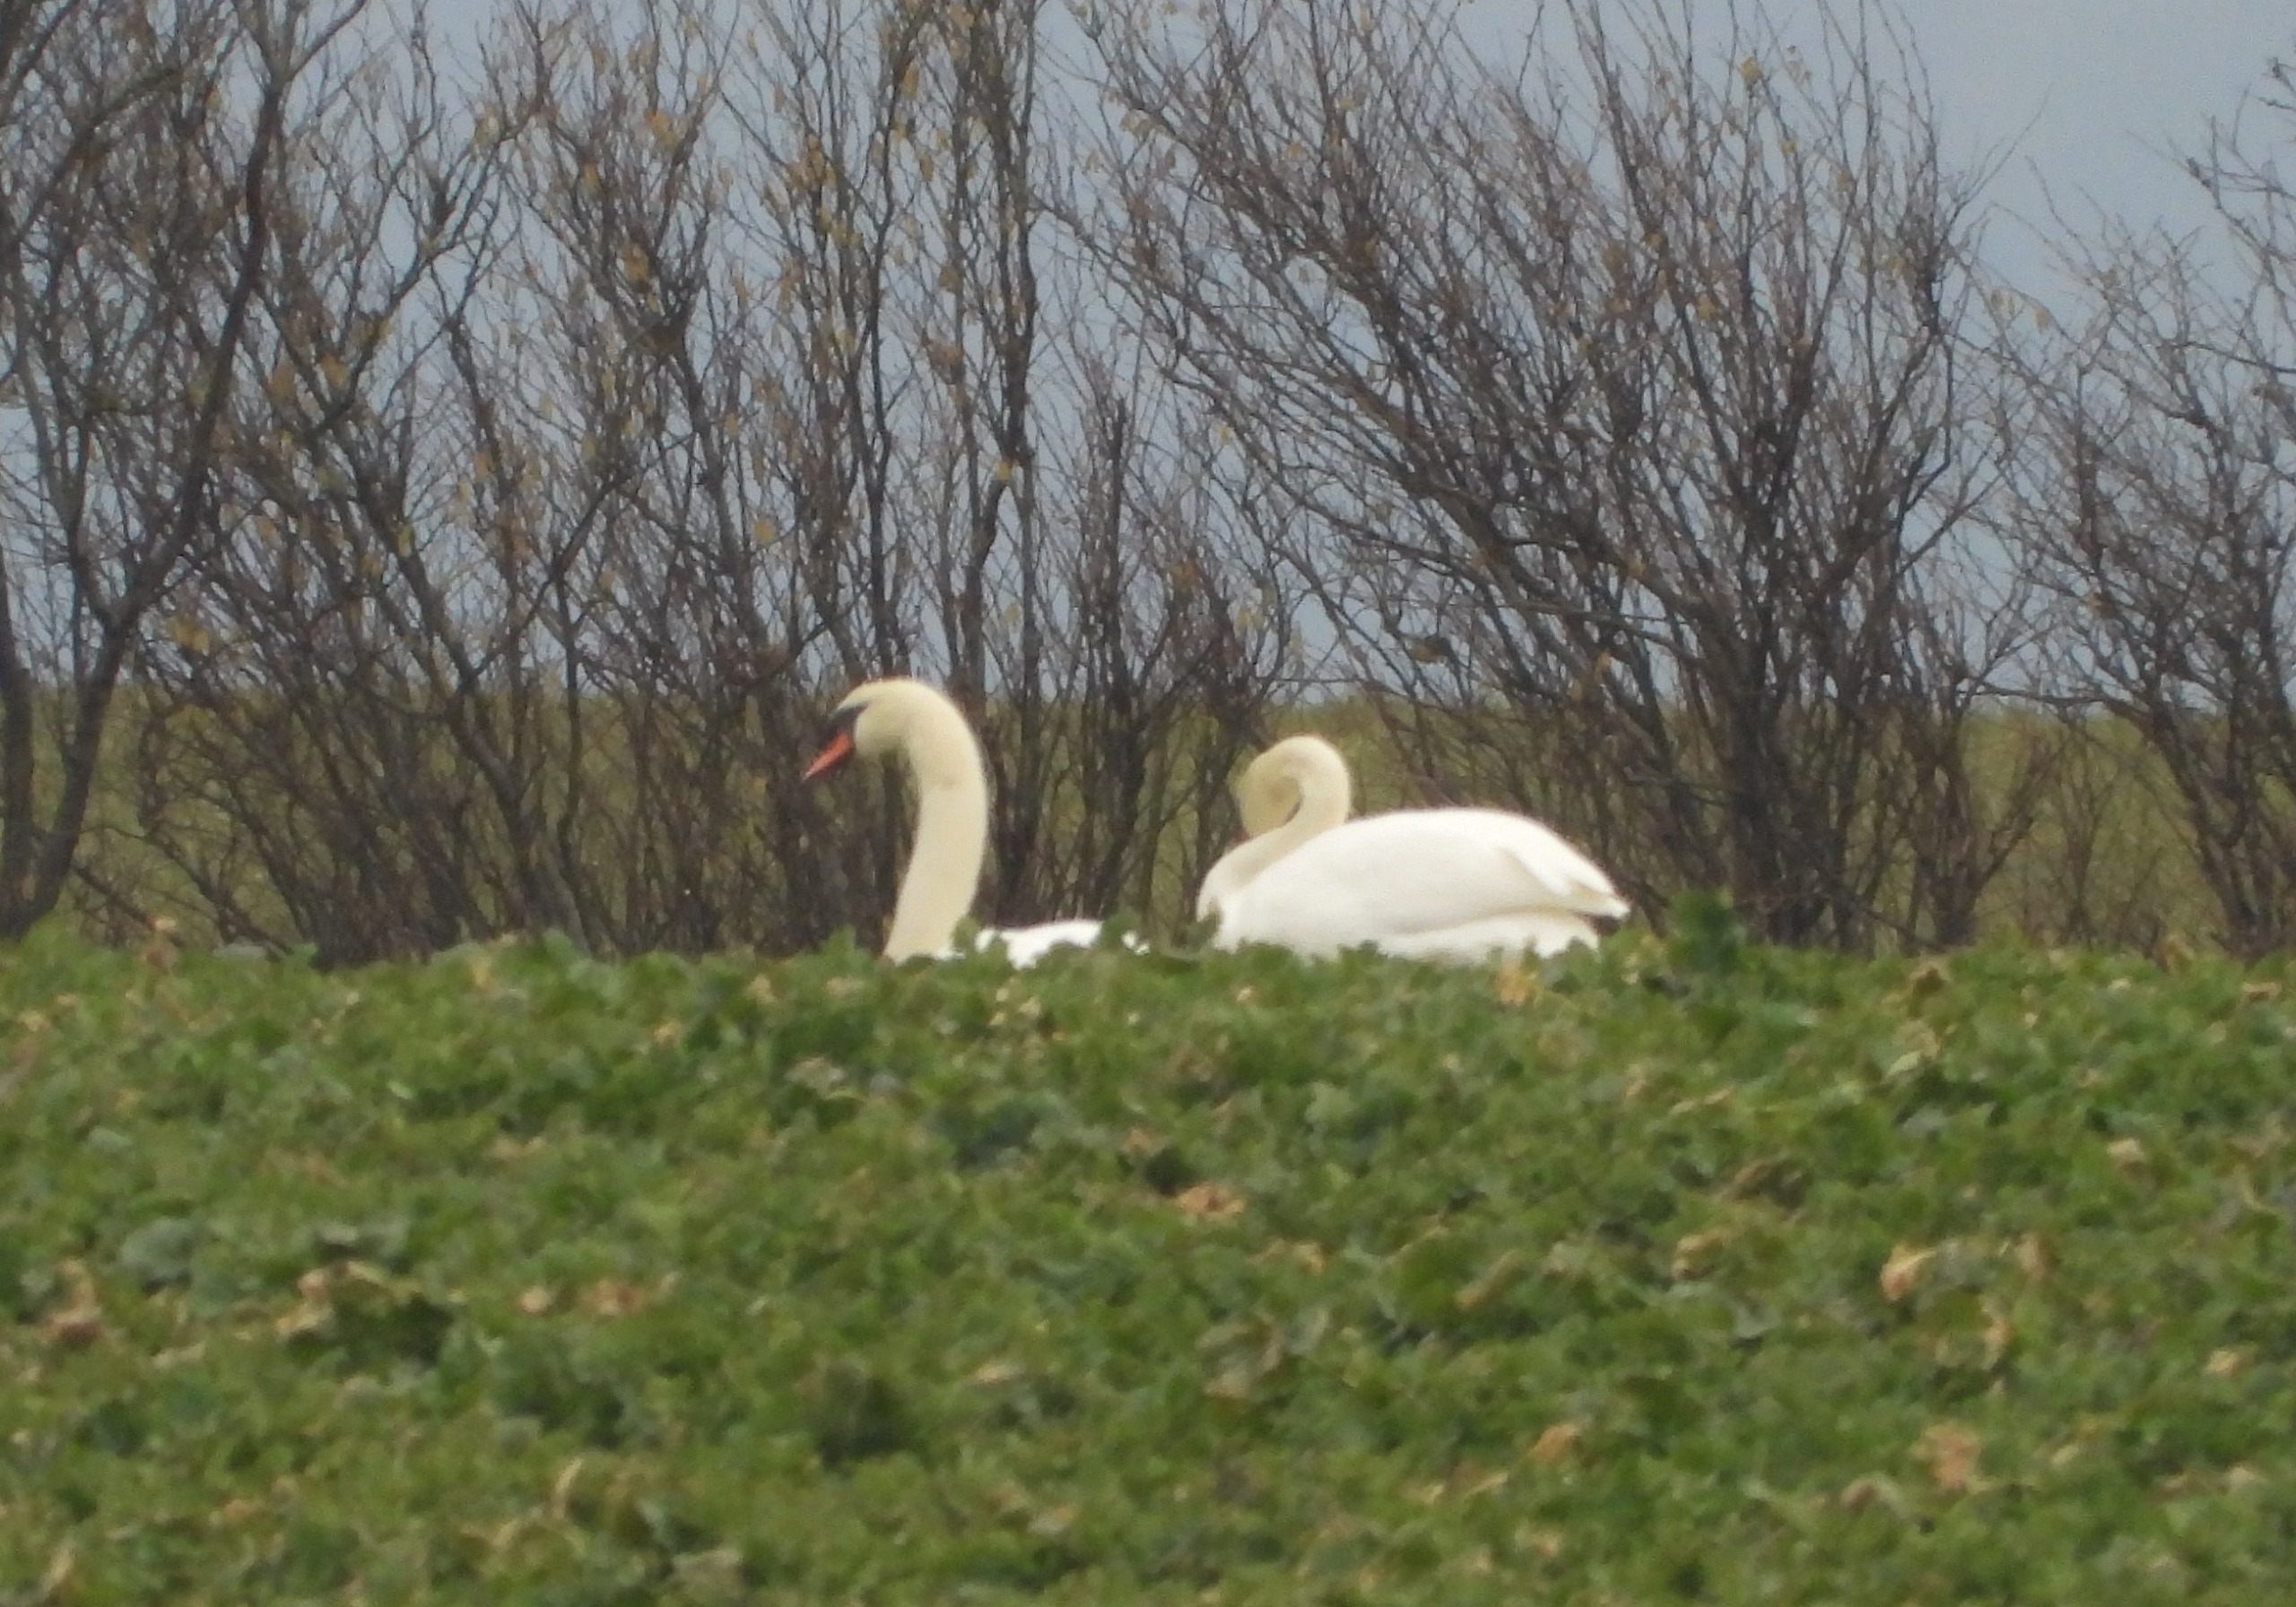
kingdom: Animalia
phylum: Chordata
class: Aves
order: Anseriformes
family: Anatidae
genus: Cygnus
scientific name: Cygnus olor
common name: Knopsvane
